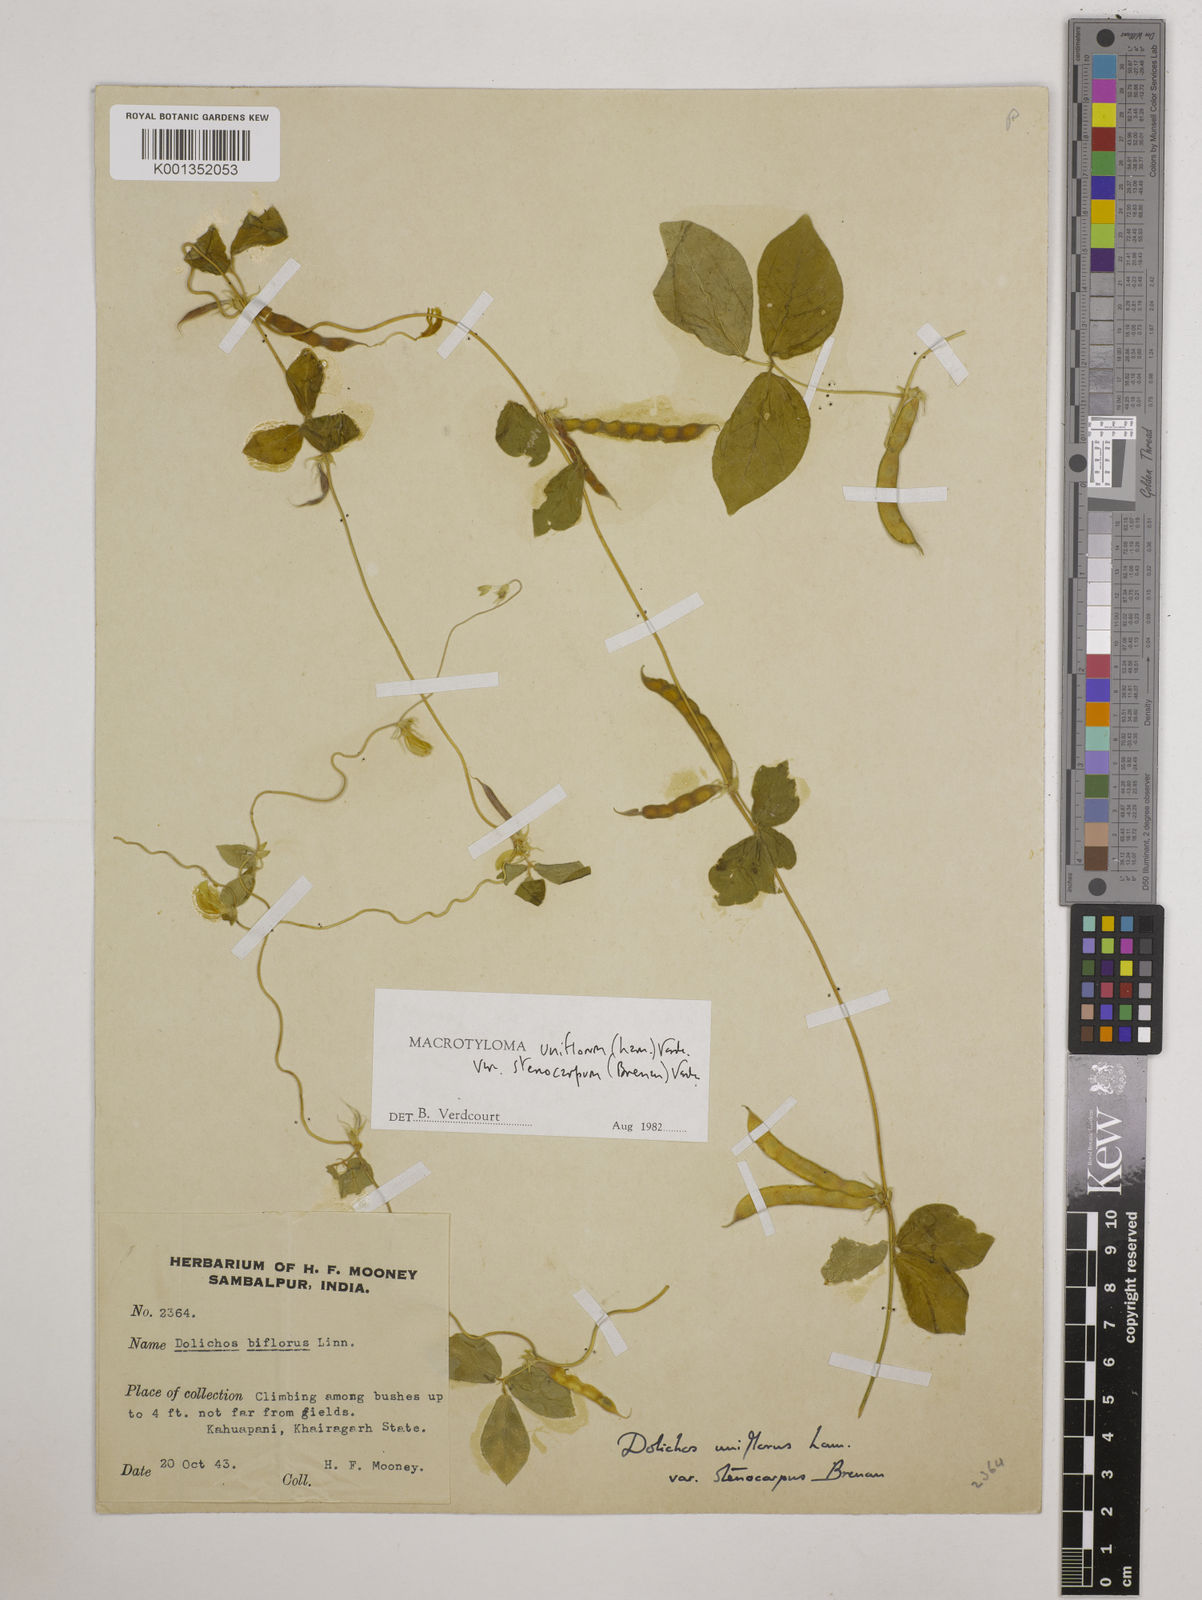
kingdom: Plantae
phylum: Tracheophyta
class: Magnoliopsida
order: Fabales
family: Fabaceae
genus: Macrotyloma
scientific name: Macrotyloma
